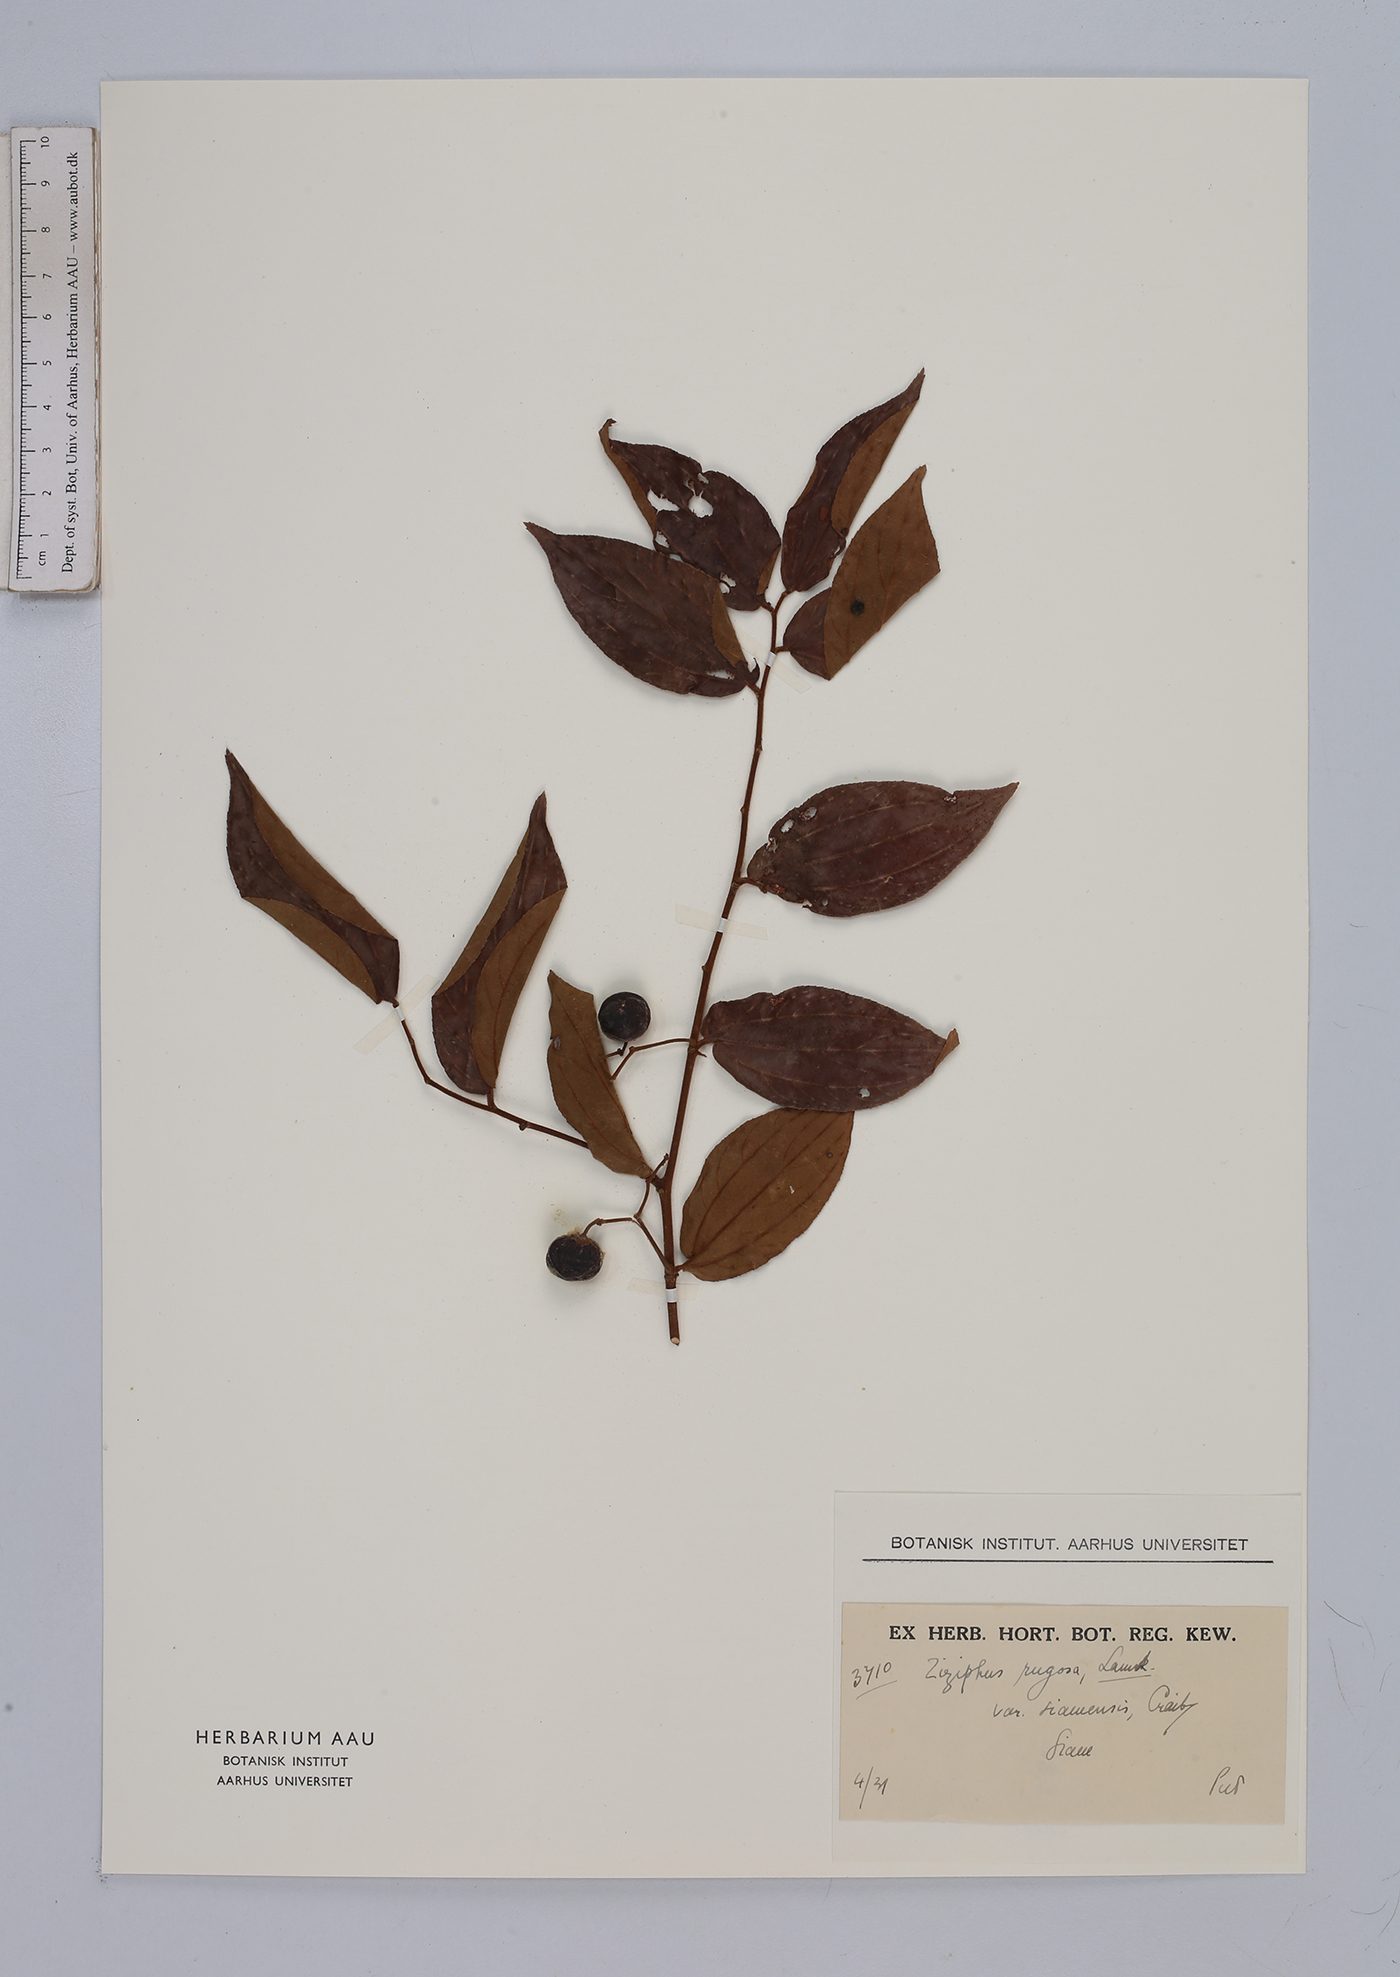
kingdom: Plantae
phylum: Tracheophyta
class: Magnoliopsida
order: Rosales
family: Rhamnaceae
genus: Ziziphus
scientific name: Ziziphus rugosa
